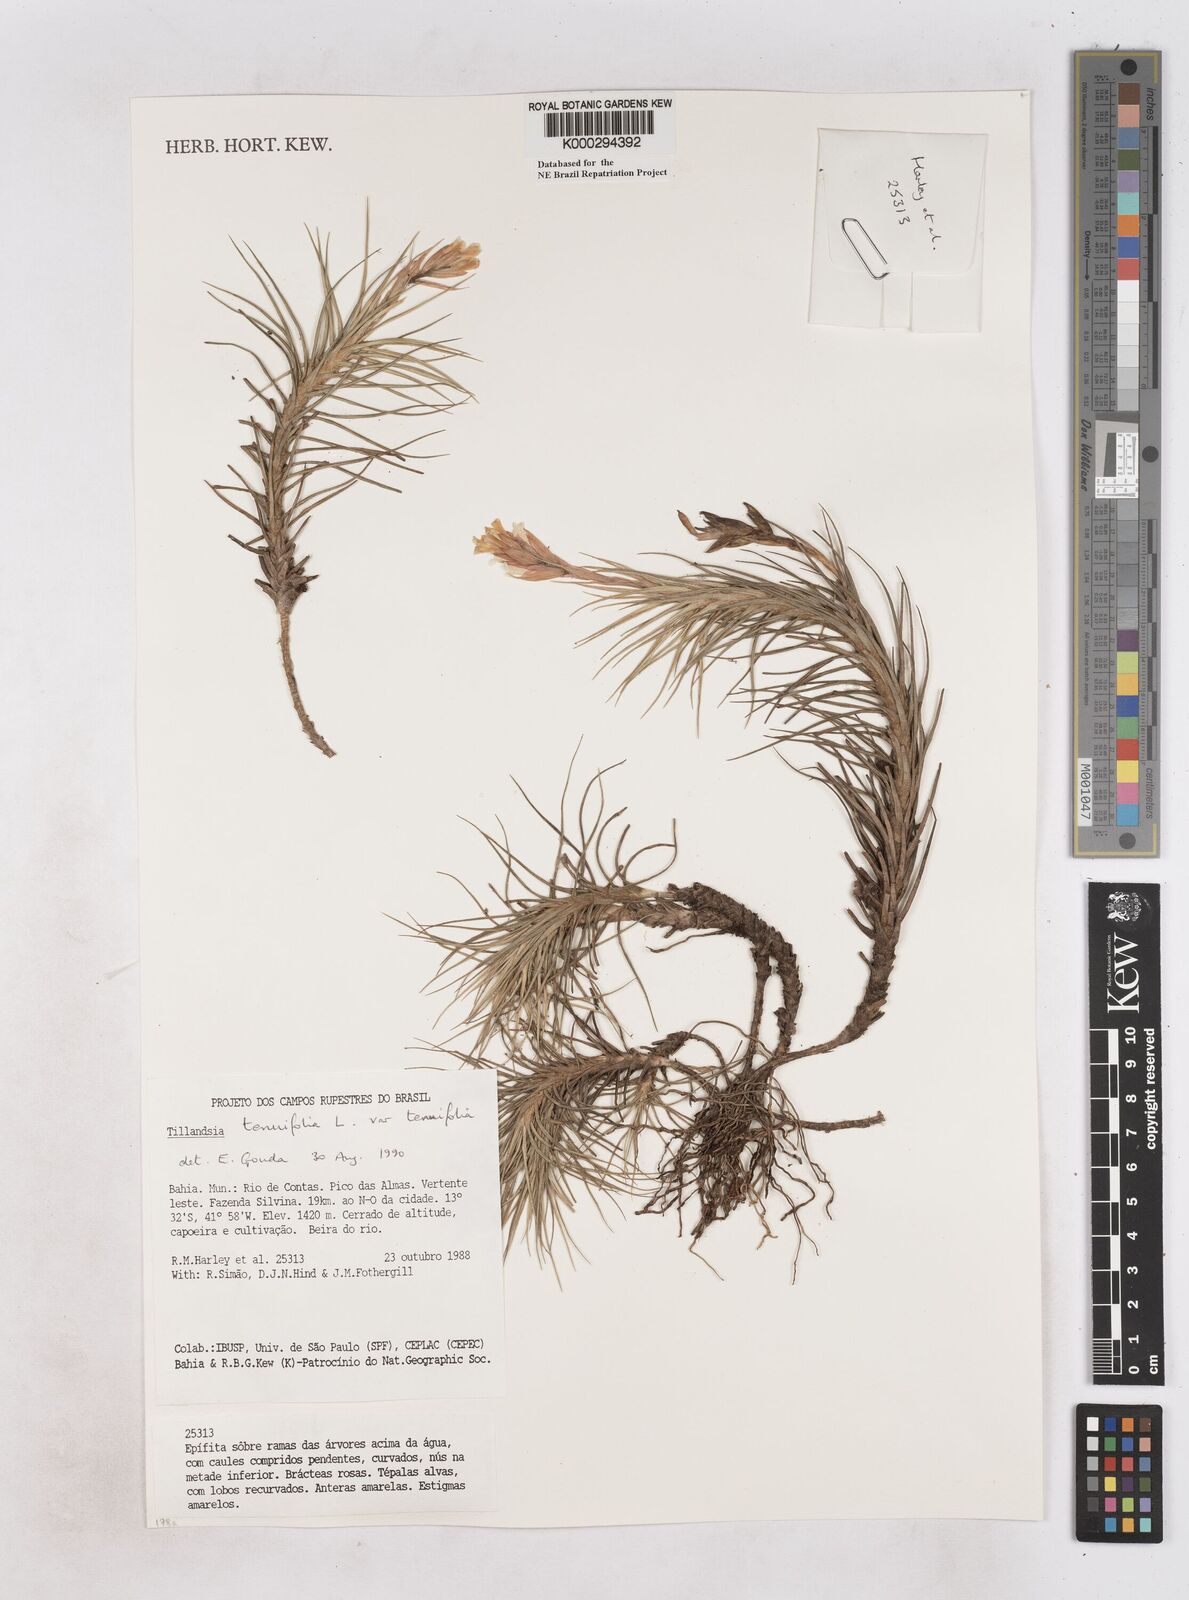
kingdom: Plantae
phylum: Tracheophyta
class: Liliopsida
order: Poales
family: Bromeliaceae
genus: Tillandsia
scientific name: Tillandsia tenuifolia
